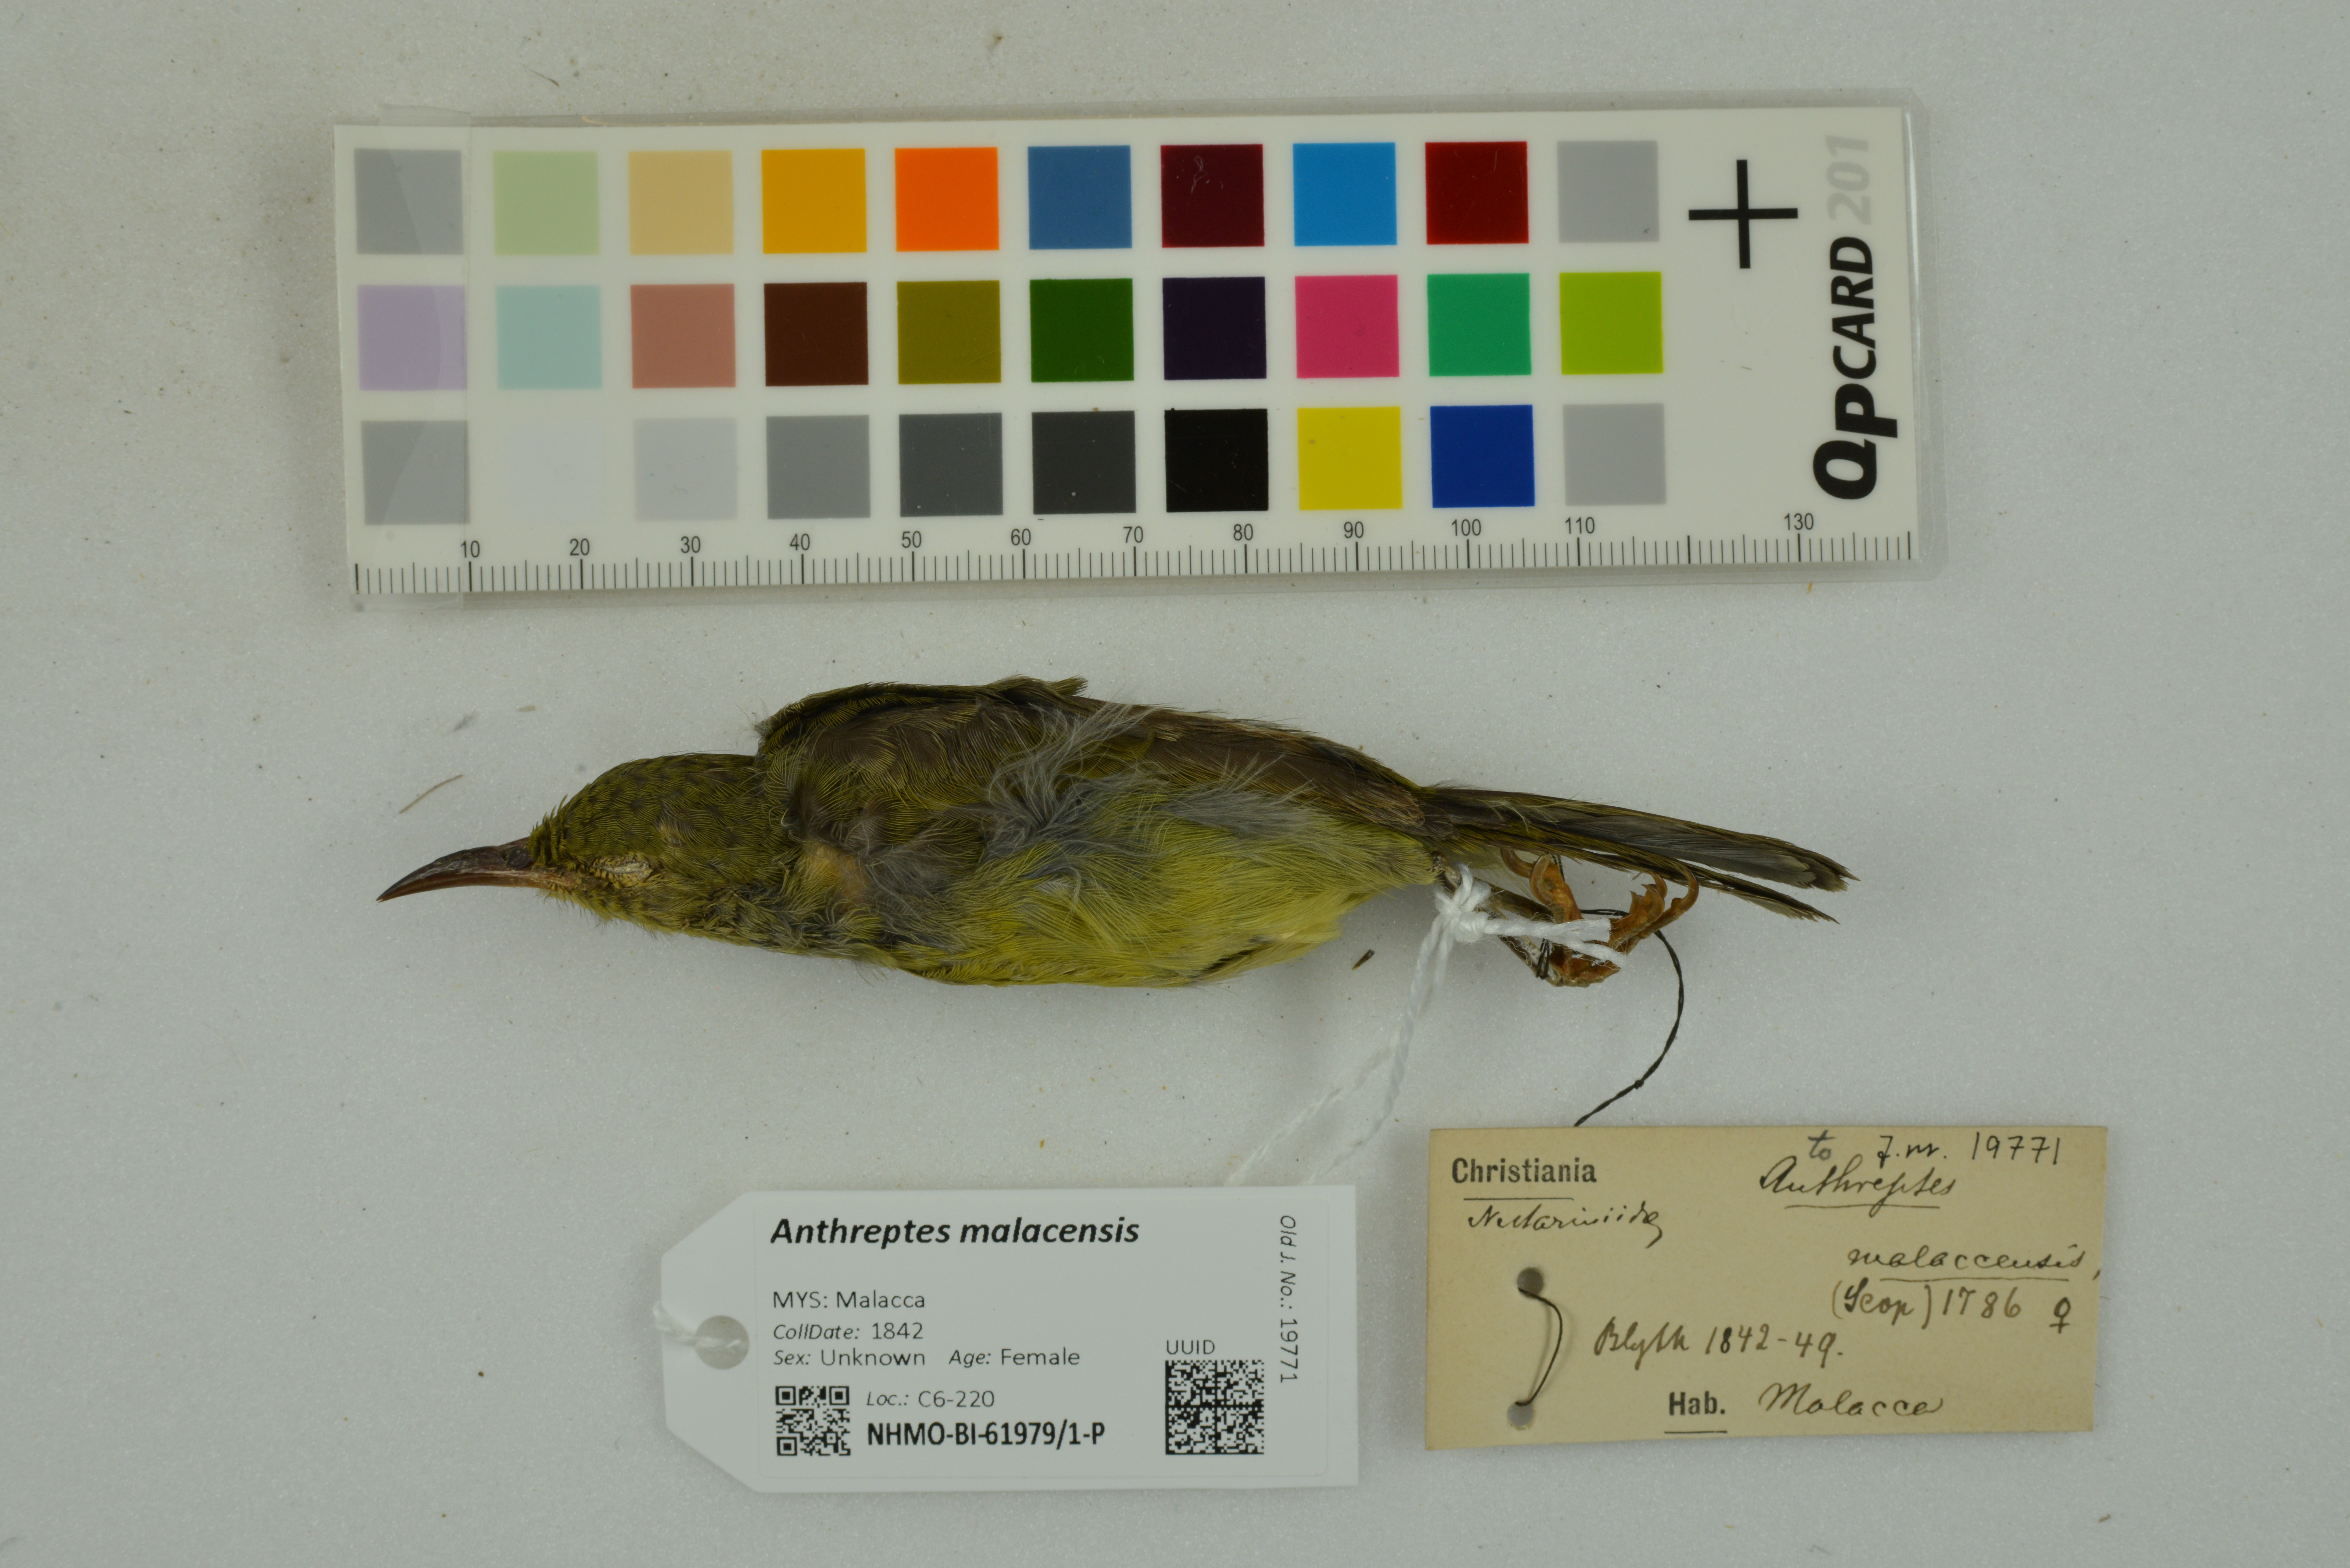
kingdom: Animalia
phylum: Chordata
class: Aves
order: Passeriformes
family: Nectariniidae
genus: Anthreptes
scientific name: Anthreptes malacensis
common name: Brown-throated sunbird
